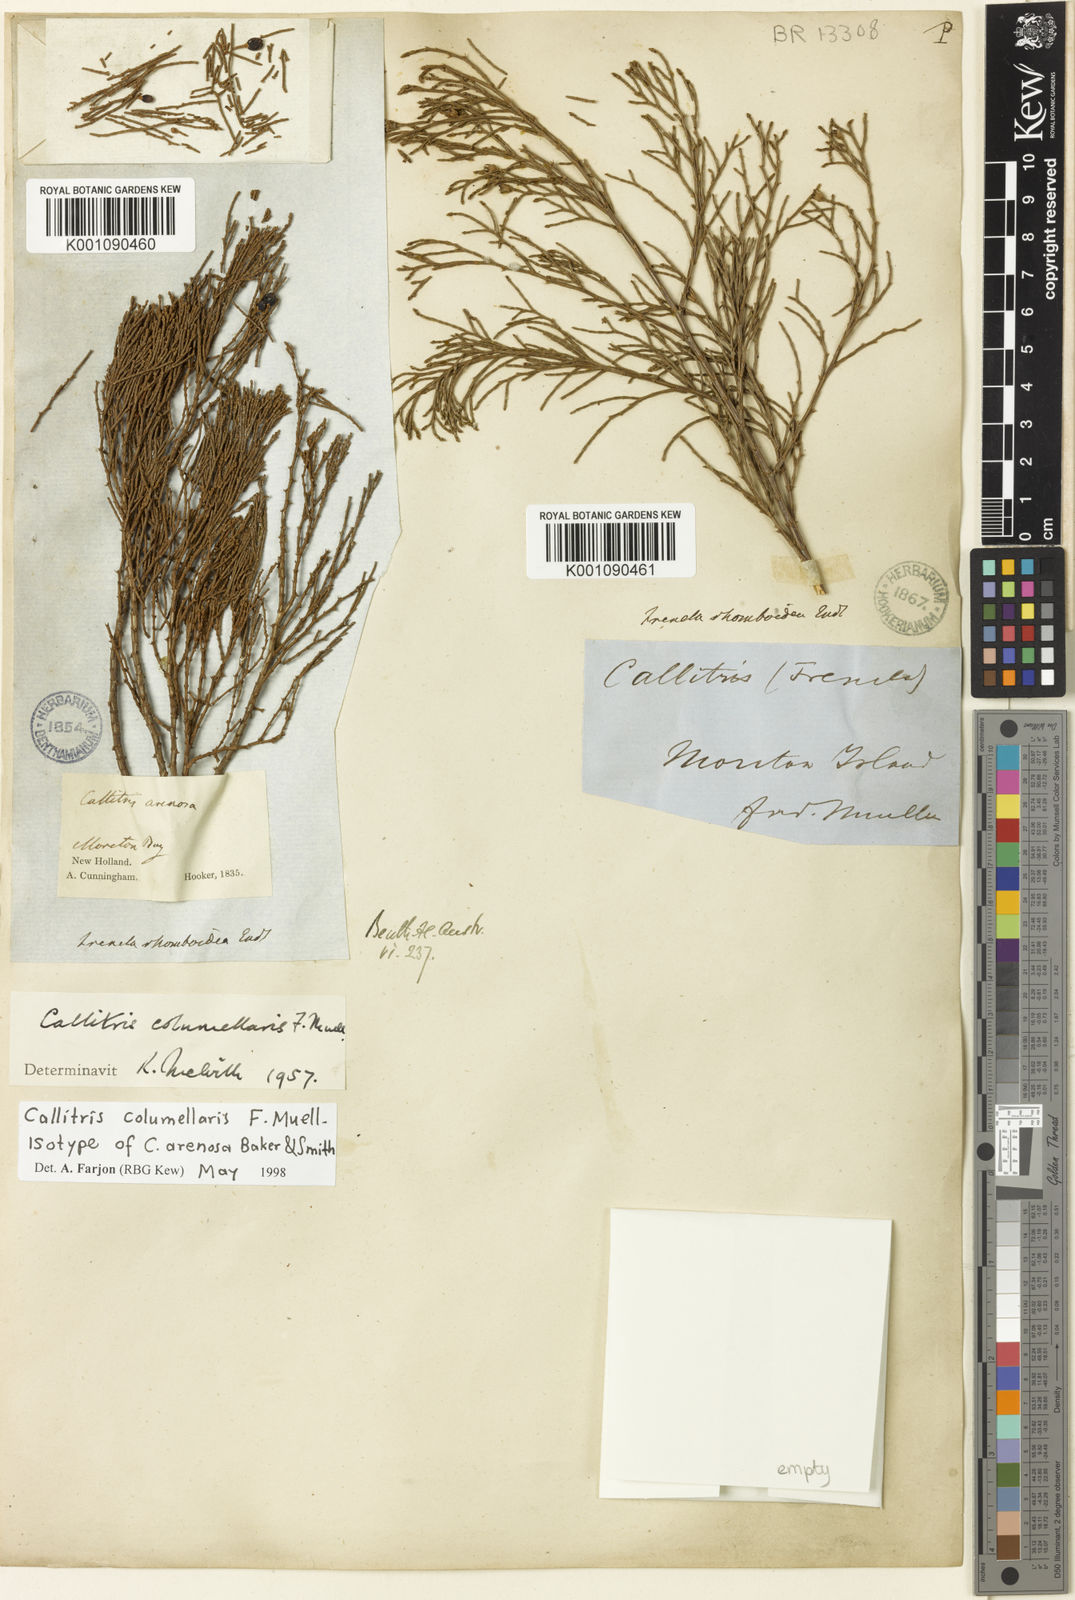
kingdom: Plantae
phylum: Tracheophyta
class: Pinopsida
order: Pinales
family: Cupressaceae
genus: Callitris
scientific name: Callitris columellaris
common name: White cypress-pine
